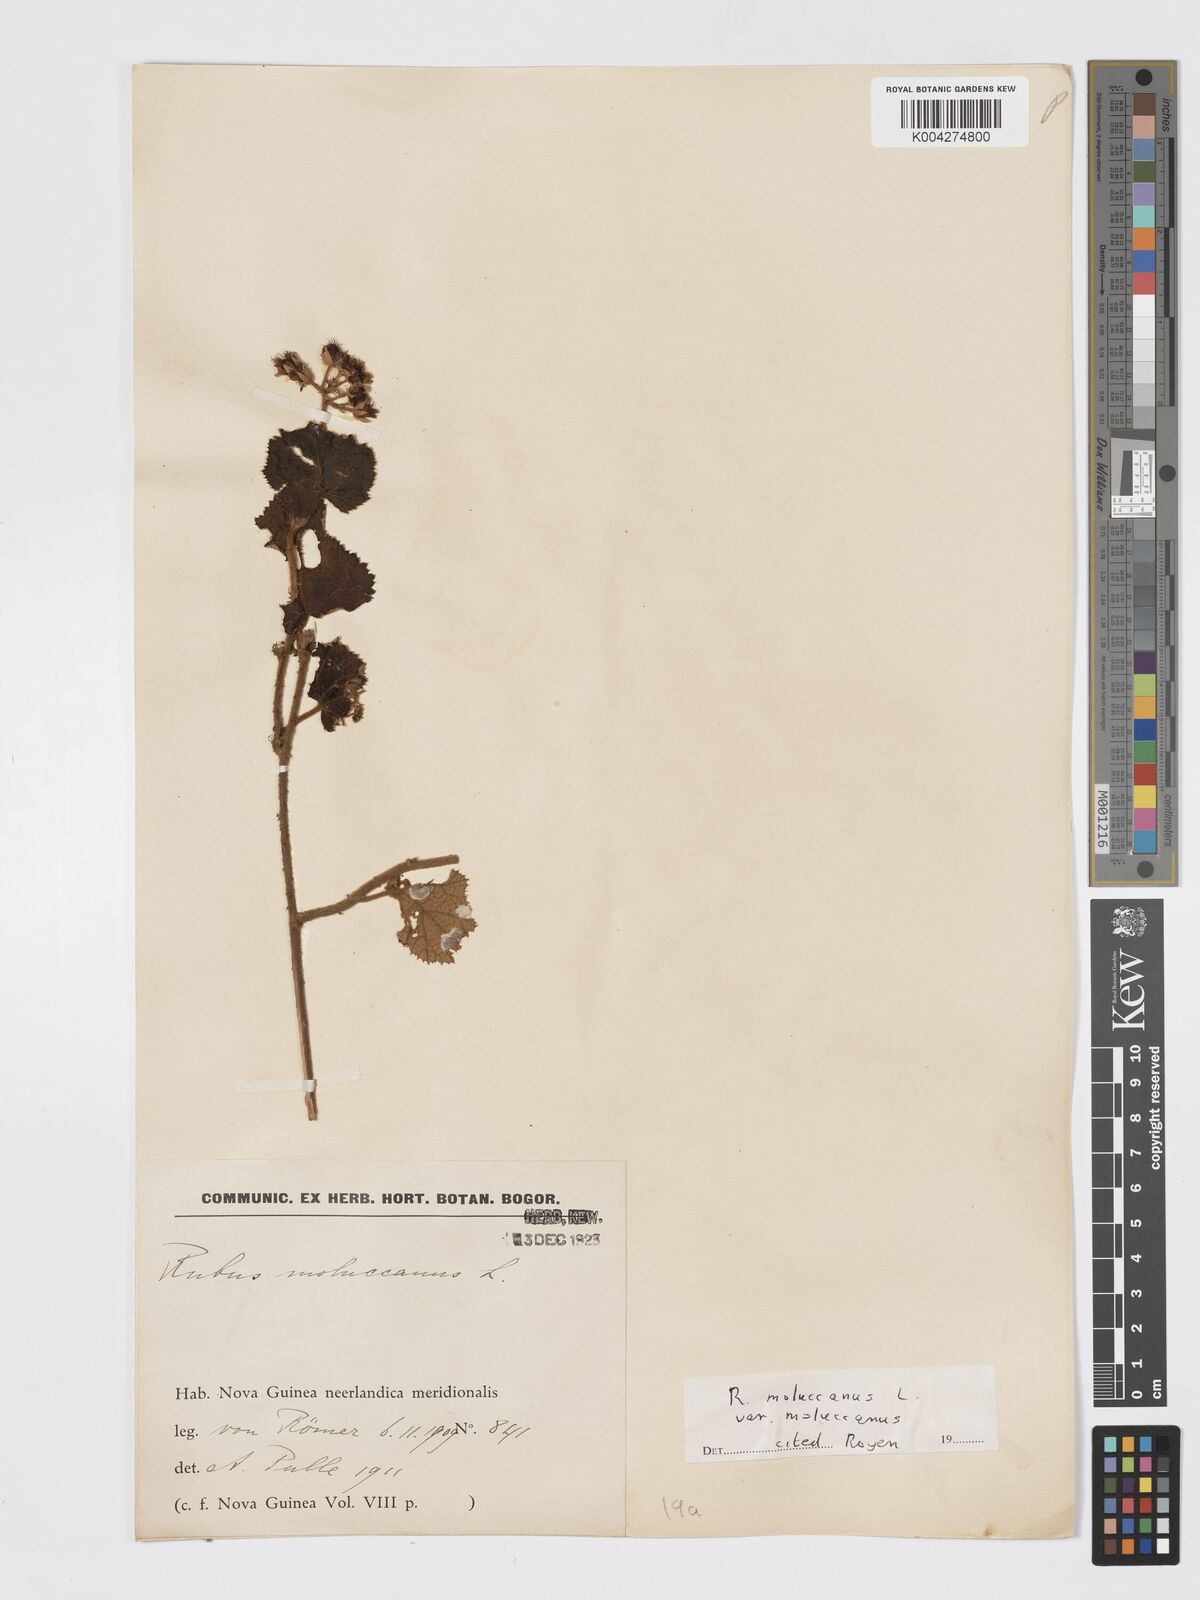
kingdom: Plantae
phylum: Tracheophyta
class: Magnoliopsida
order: Rosales
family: Rosaceae
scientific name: Rosaceae
